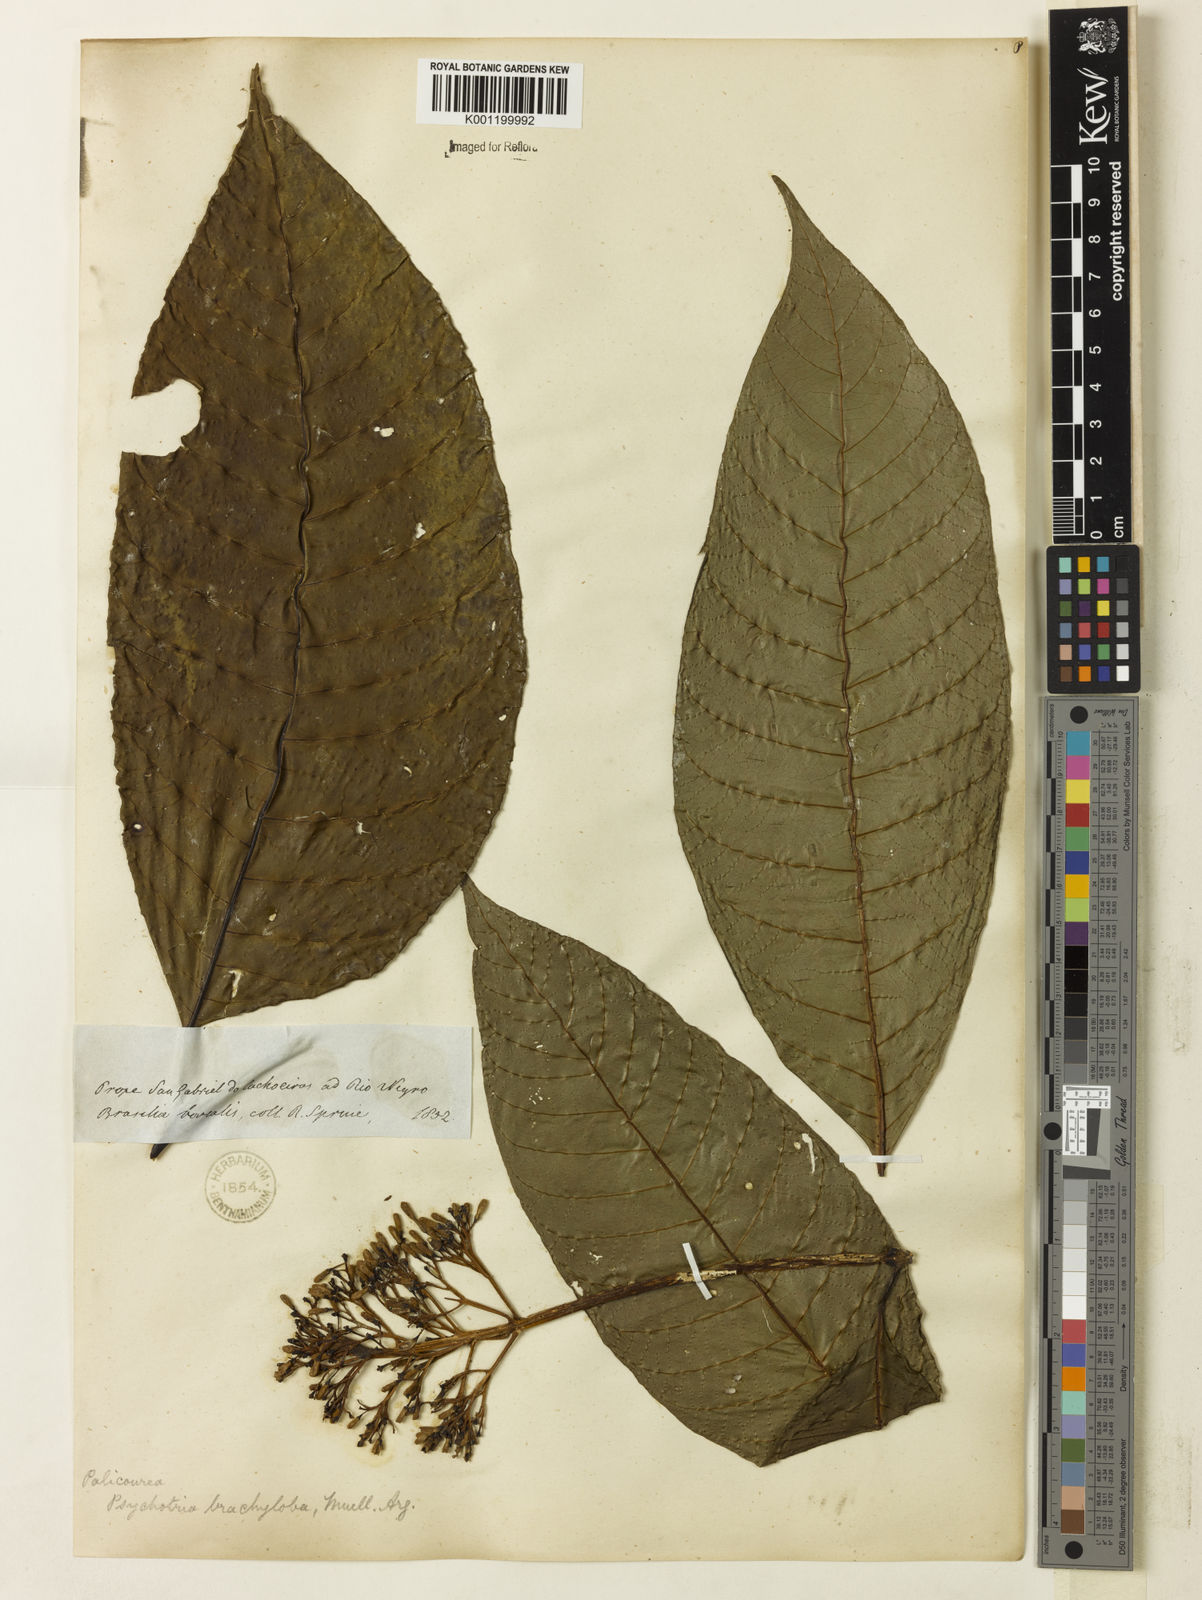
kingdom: Plantae
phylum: Tracheophyta
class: Magnoliopsida
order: Gentianales
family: Rubiaceae
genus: Palicourea
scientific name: Palicourea
